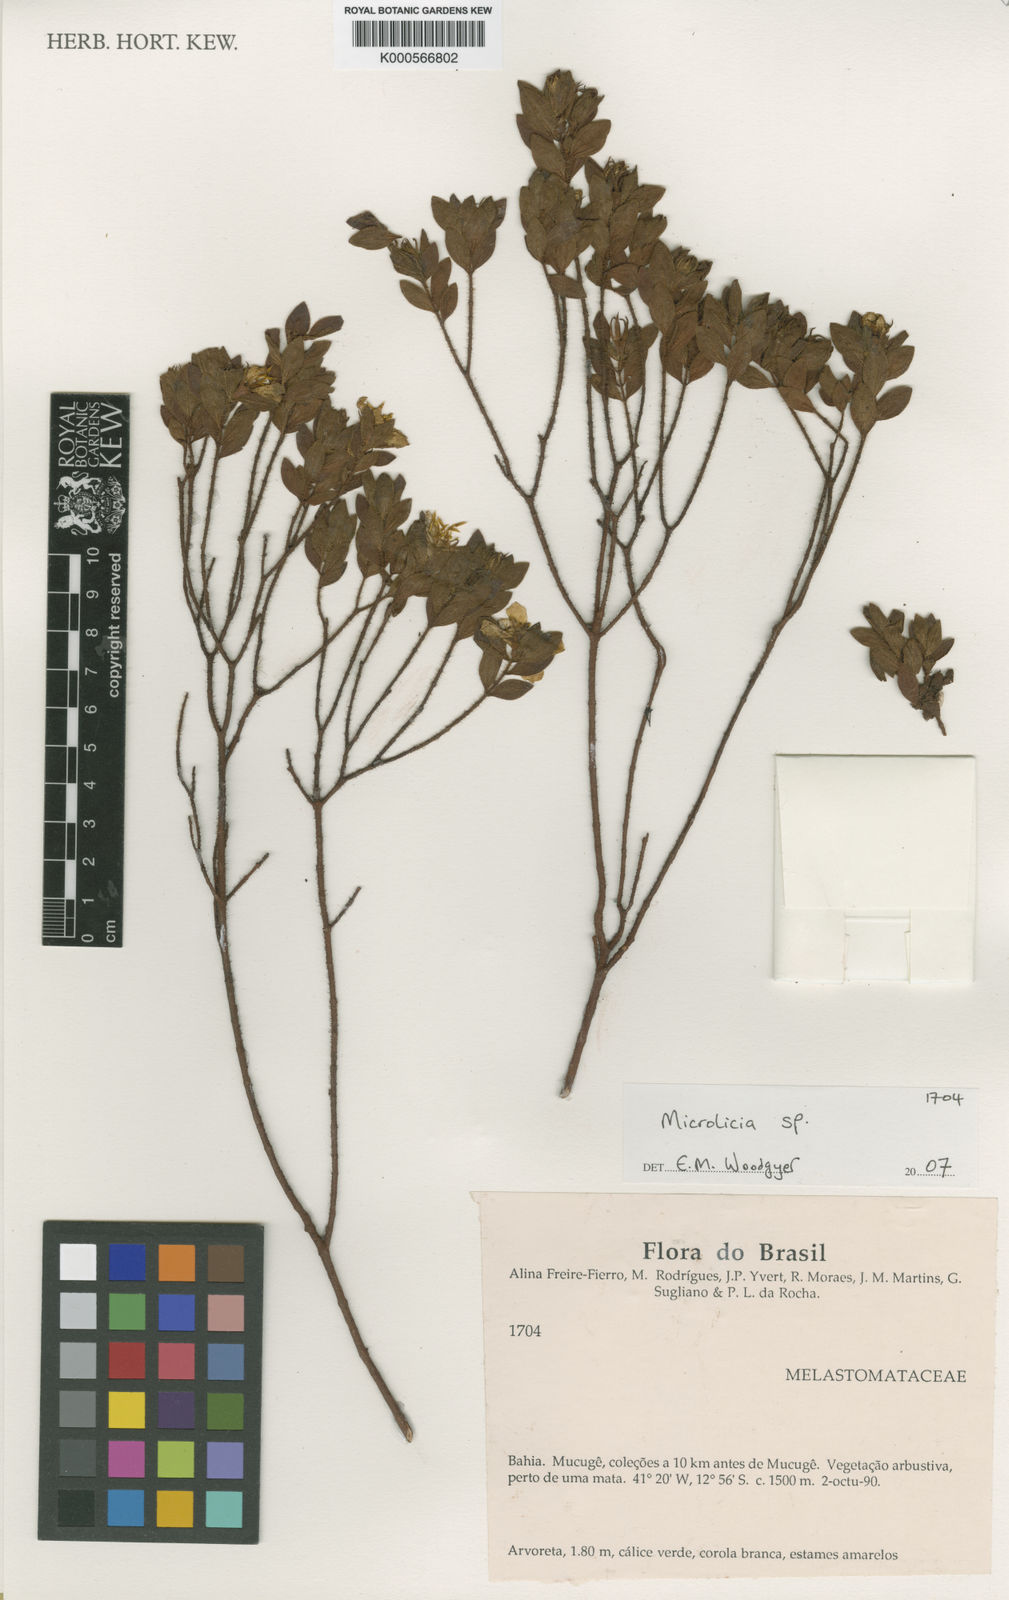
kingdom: Plantae
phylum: Tracheophyta
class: Magnoliopsida
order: Myrtales
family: Melastomataceae
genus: Microlicia
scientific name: Microlicia hirta
